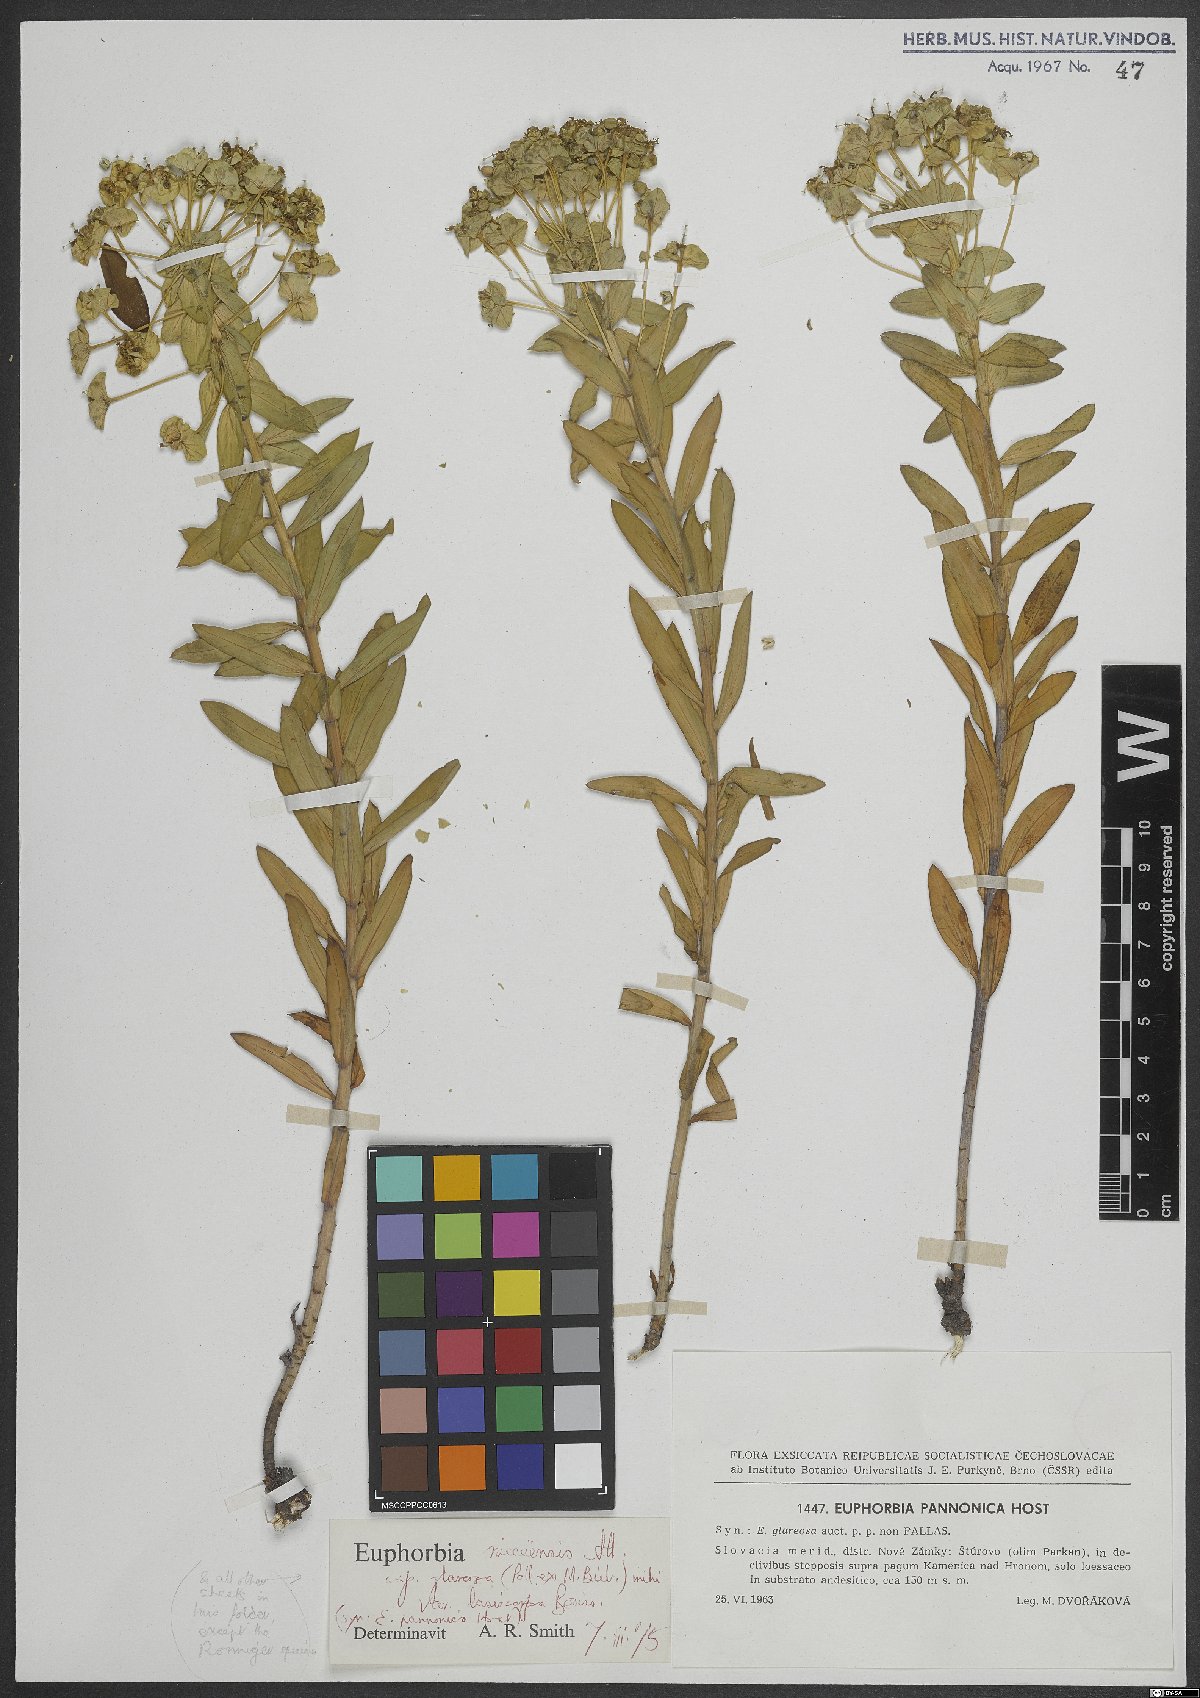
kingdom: Plantae
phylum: Tracheophyta
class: Magnoliopsida
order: Malpighiales
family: Euphorbiaceae
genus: Euphorbia
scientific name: Euphorbia pannonica
